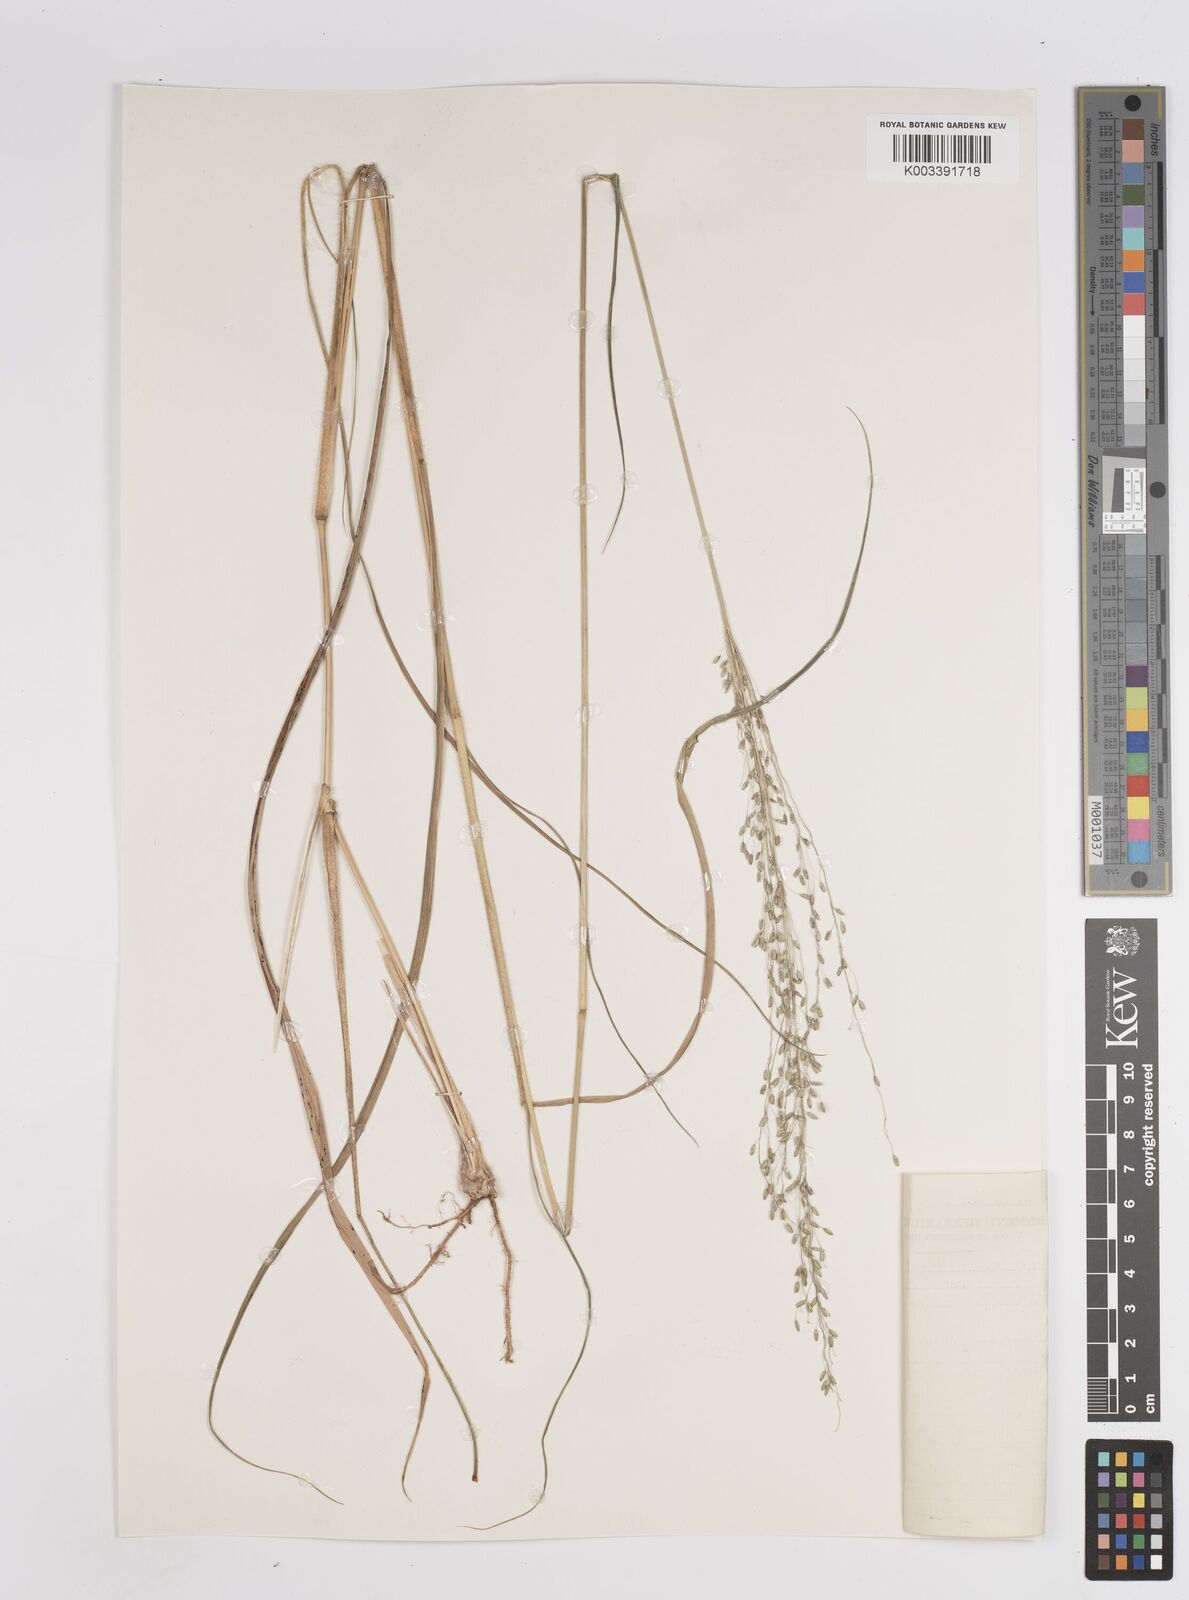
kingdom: Plantae
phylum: Tracheophyta
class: Liliopsida
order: Poales
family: Poaceae
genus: Megathyrsus
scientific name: Megathyrsus maximus
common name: Guineagrass
